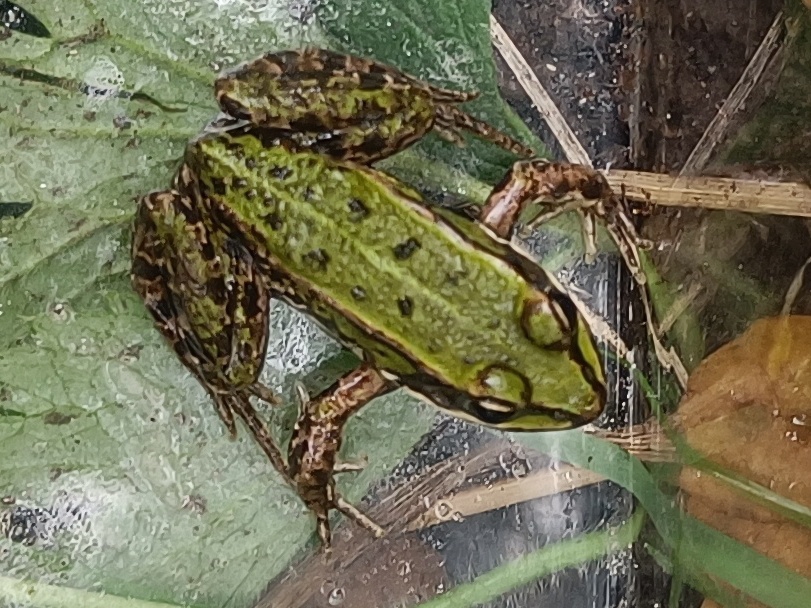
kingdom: Animalia
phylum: Chordata
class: Amphibia
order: Anura
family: Ranidae
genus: Pelophylax
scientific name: Pelophylax lessonae
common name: Grøn frø
